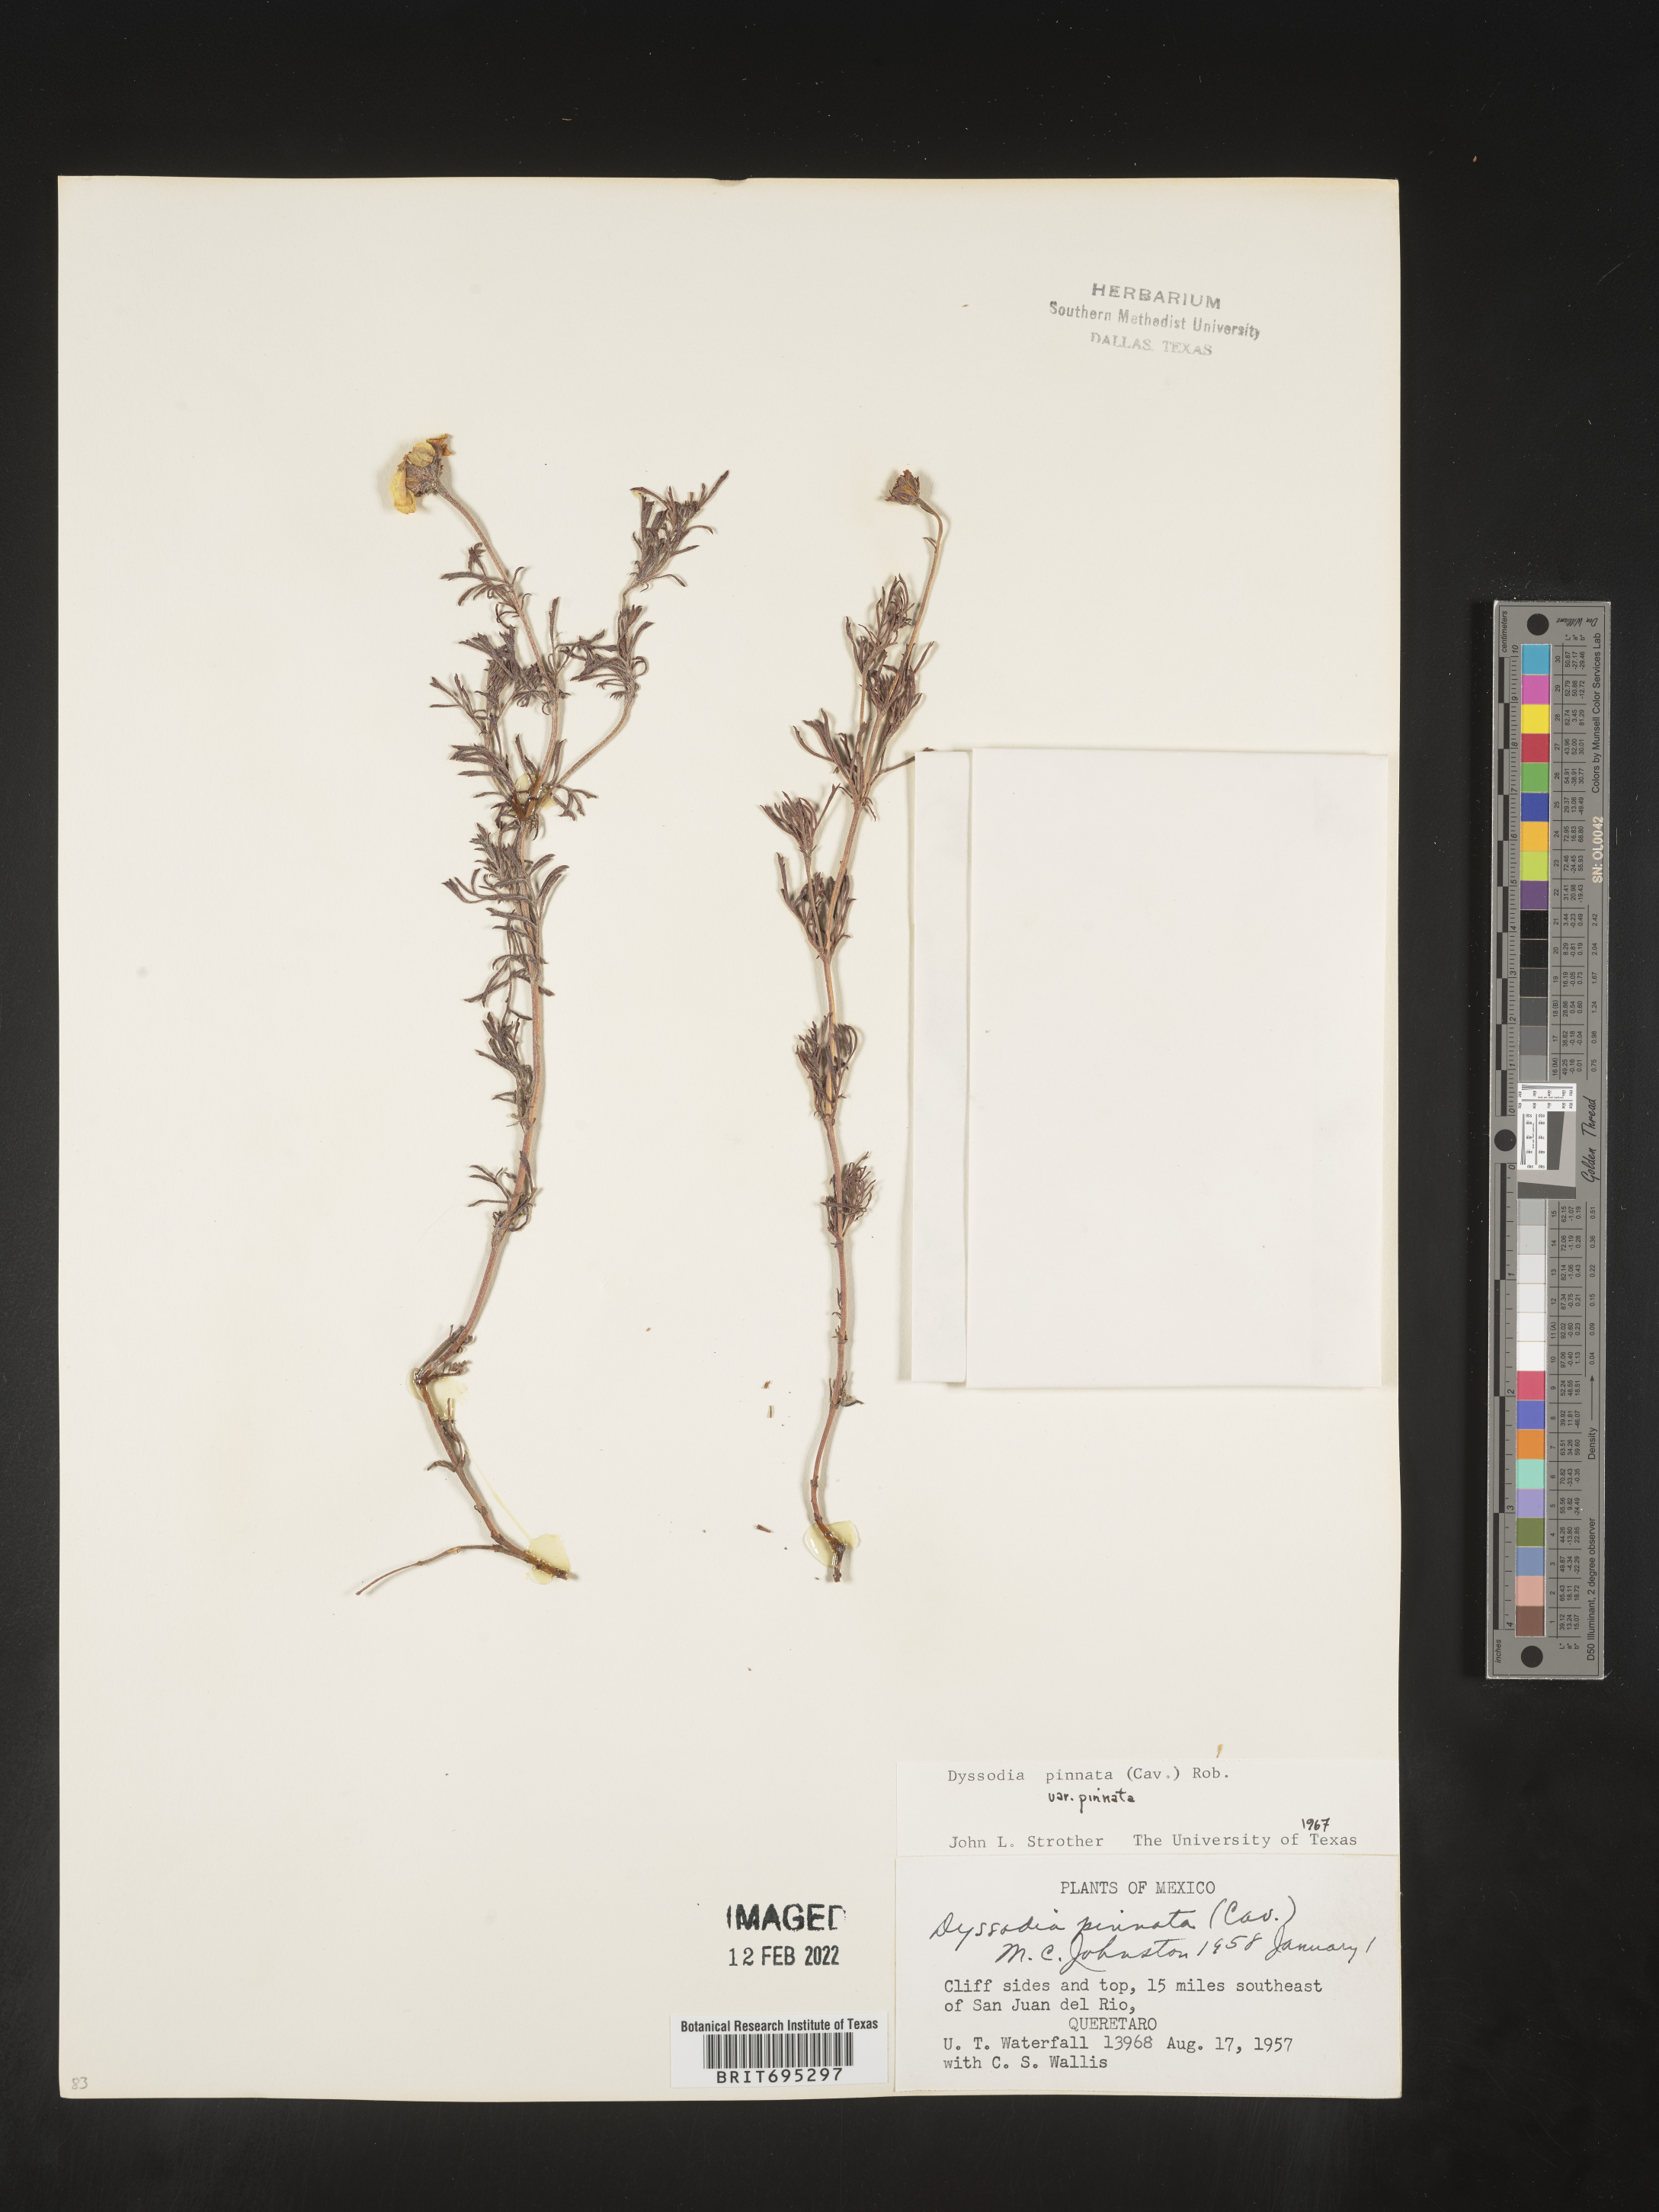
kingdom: Plantae
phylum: Tracheophyta
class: Magnoliopsida
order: Asterales
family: Asteraceae
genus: Dyssodia
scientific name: Dyssodia
